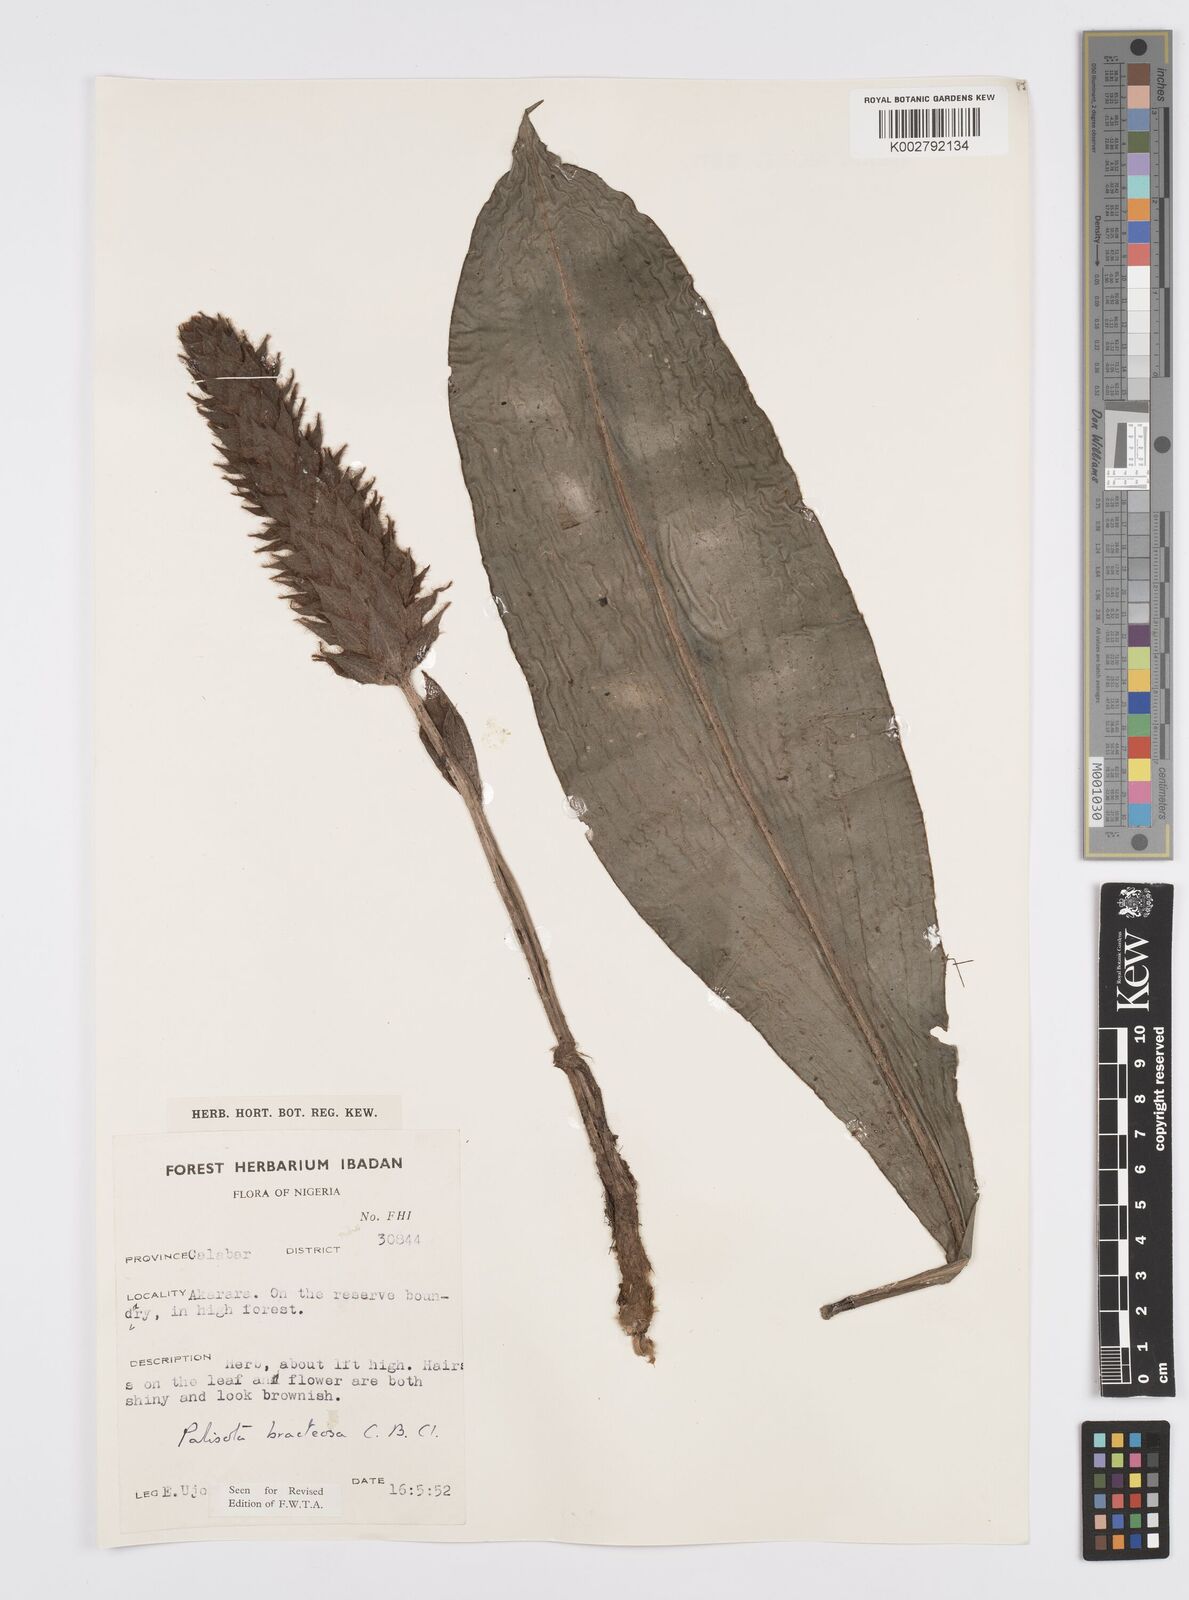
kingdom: Plantae
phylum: Tracheophyta
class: Liliopsida
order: Commelinales
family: Commelinaceae
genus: Palisota
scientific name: Palisota bracteosa
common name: Palisota
